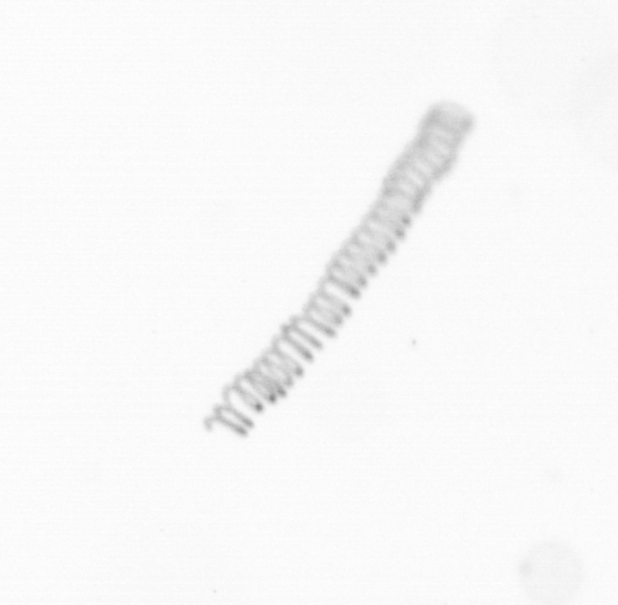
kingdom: Chromista
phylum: Ochrophyta
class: Bacillariophyceae
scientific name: Bacillariophyceae
